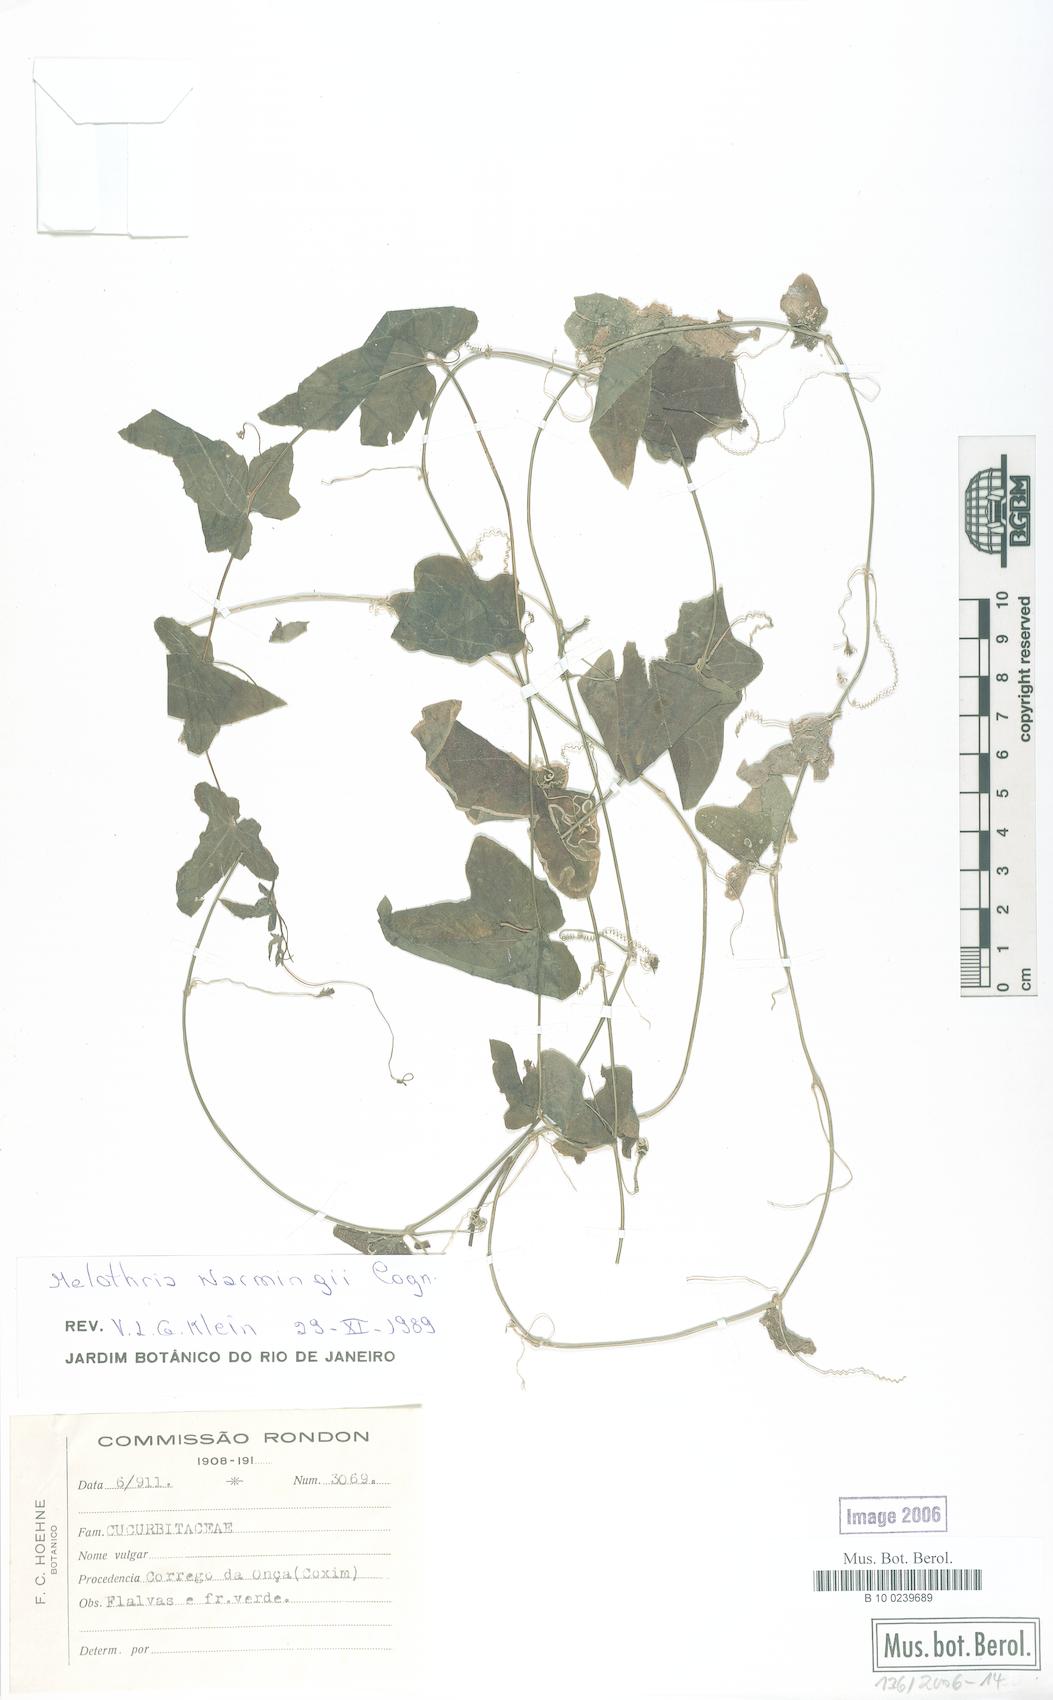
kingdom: Plantae
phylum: Tracheophyta
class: Magnoliopsida
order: Cucurbitales
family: Cucurbitaceae
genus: Melothria
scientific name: Melothria warmingii
